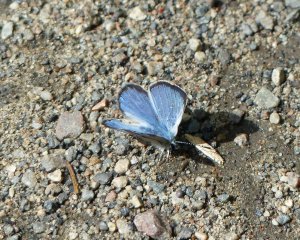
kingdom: Animalia
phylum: Arthropoda
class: Insecta
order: Lepidoptera
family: Lycaenidae
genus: Glaucopsyche
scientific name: Glaucopsyche lygdamus
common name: Silvery Blue
